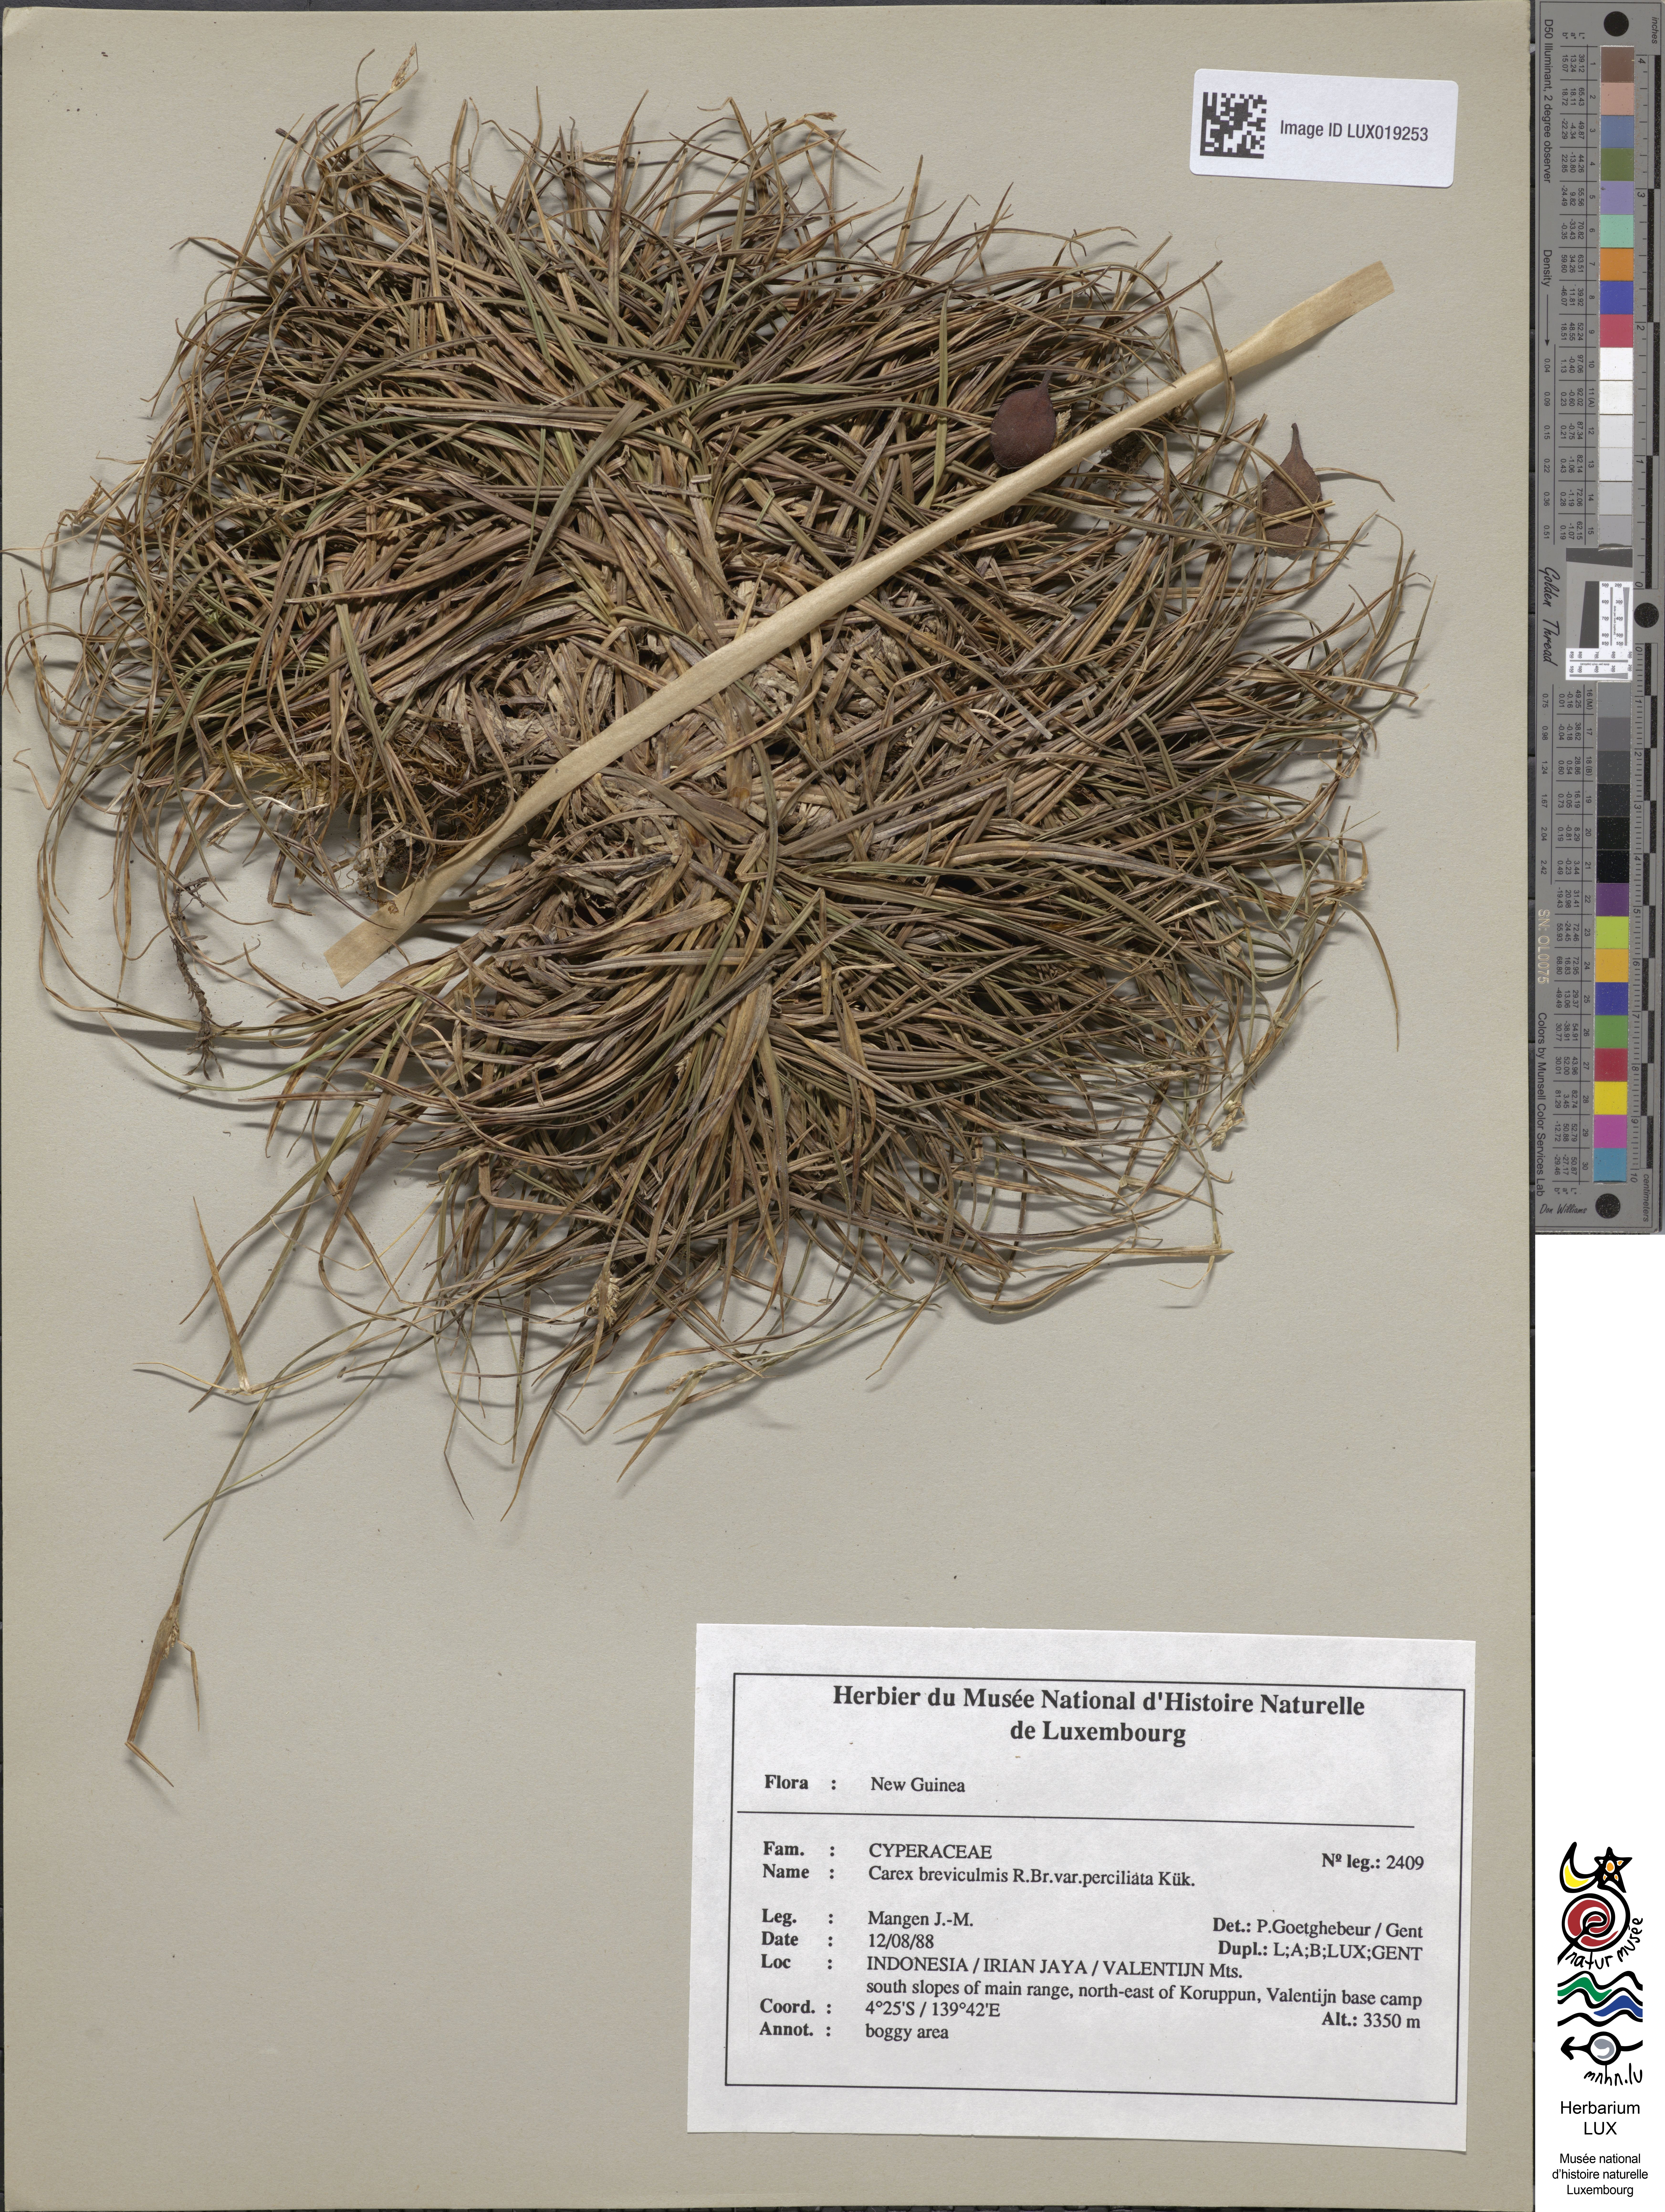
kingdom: Plantae
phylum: Tracheophyta
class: Liliopsida
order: Poales
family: Cyperaceae
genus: Carex
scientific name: Carex breviculmis
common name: Asian shortstem sedge
